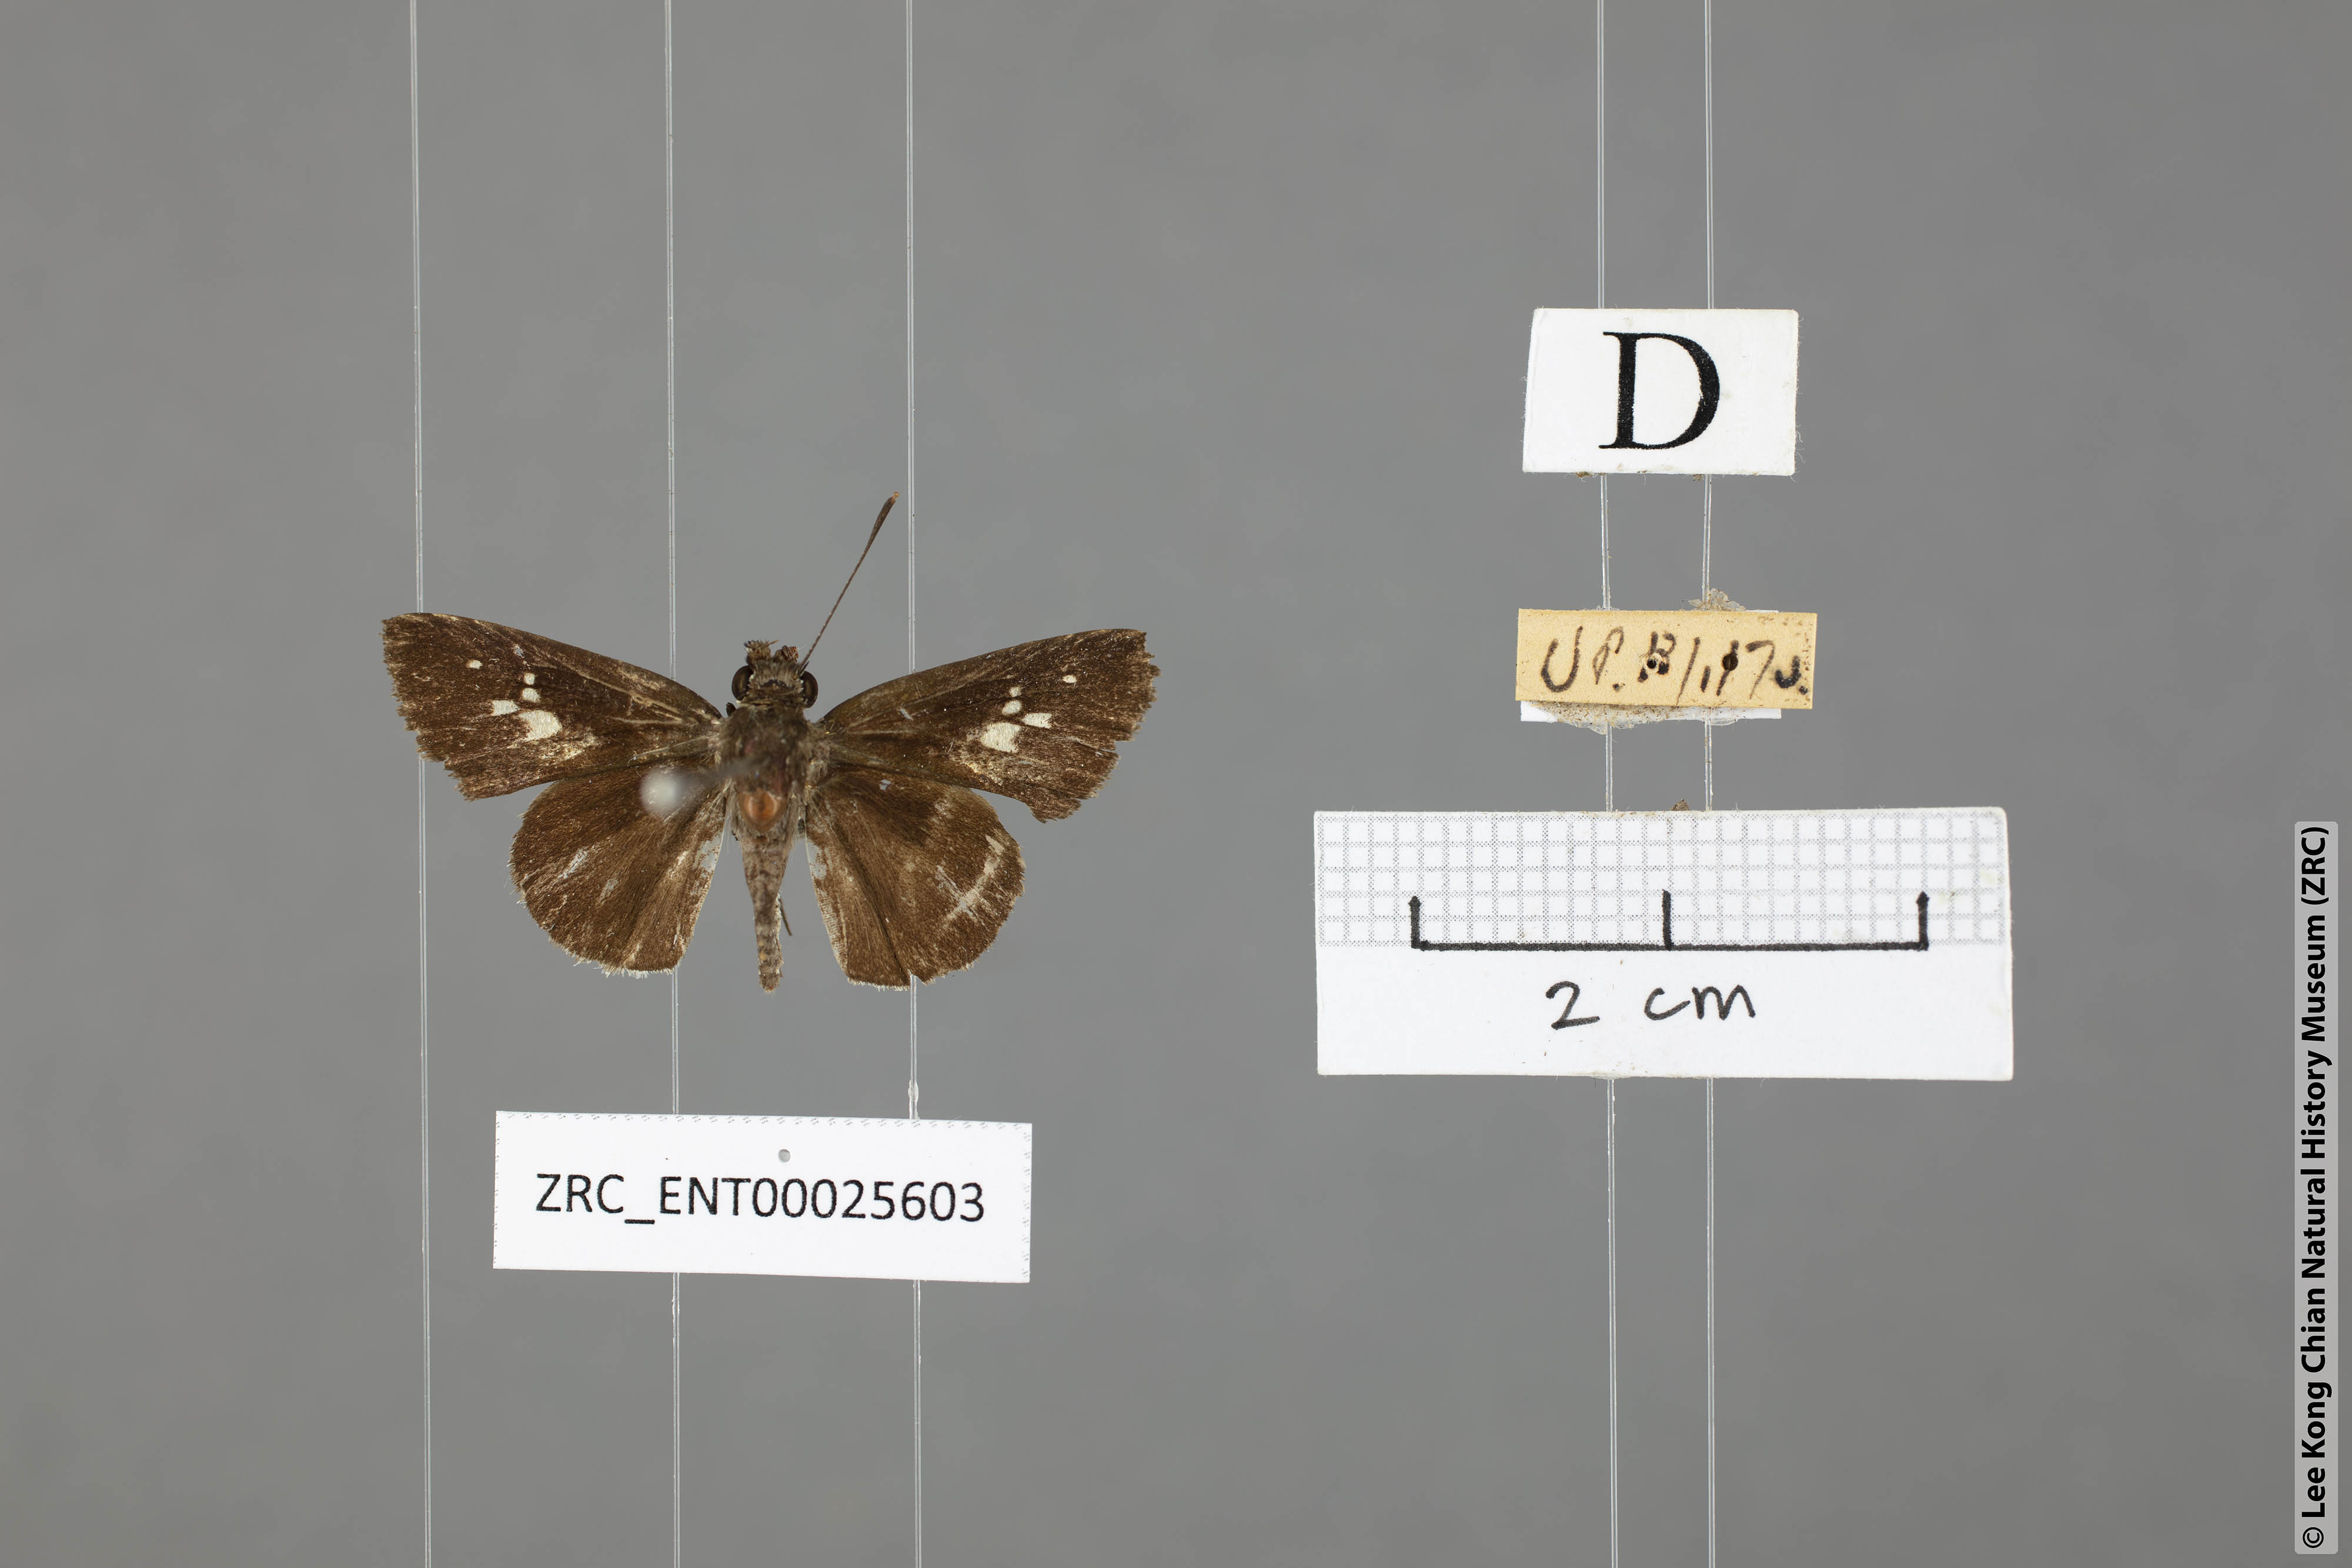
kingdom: Animalia
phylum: Arthropoda
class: Insecta
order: Lepidoptera
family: Hesperiidae
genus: Suastus
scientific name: Suastus minuta
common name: Small palm bob
